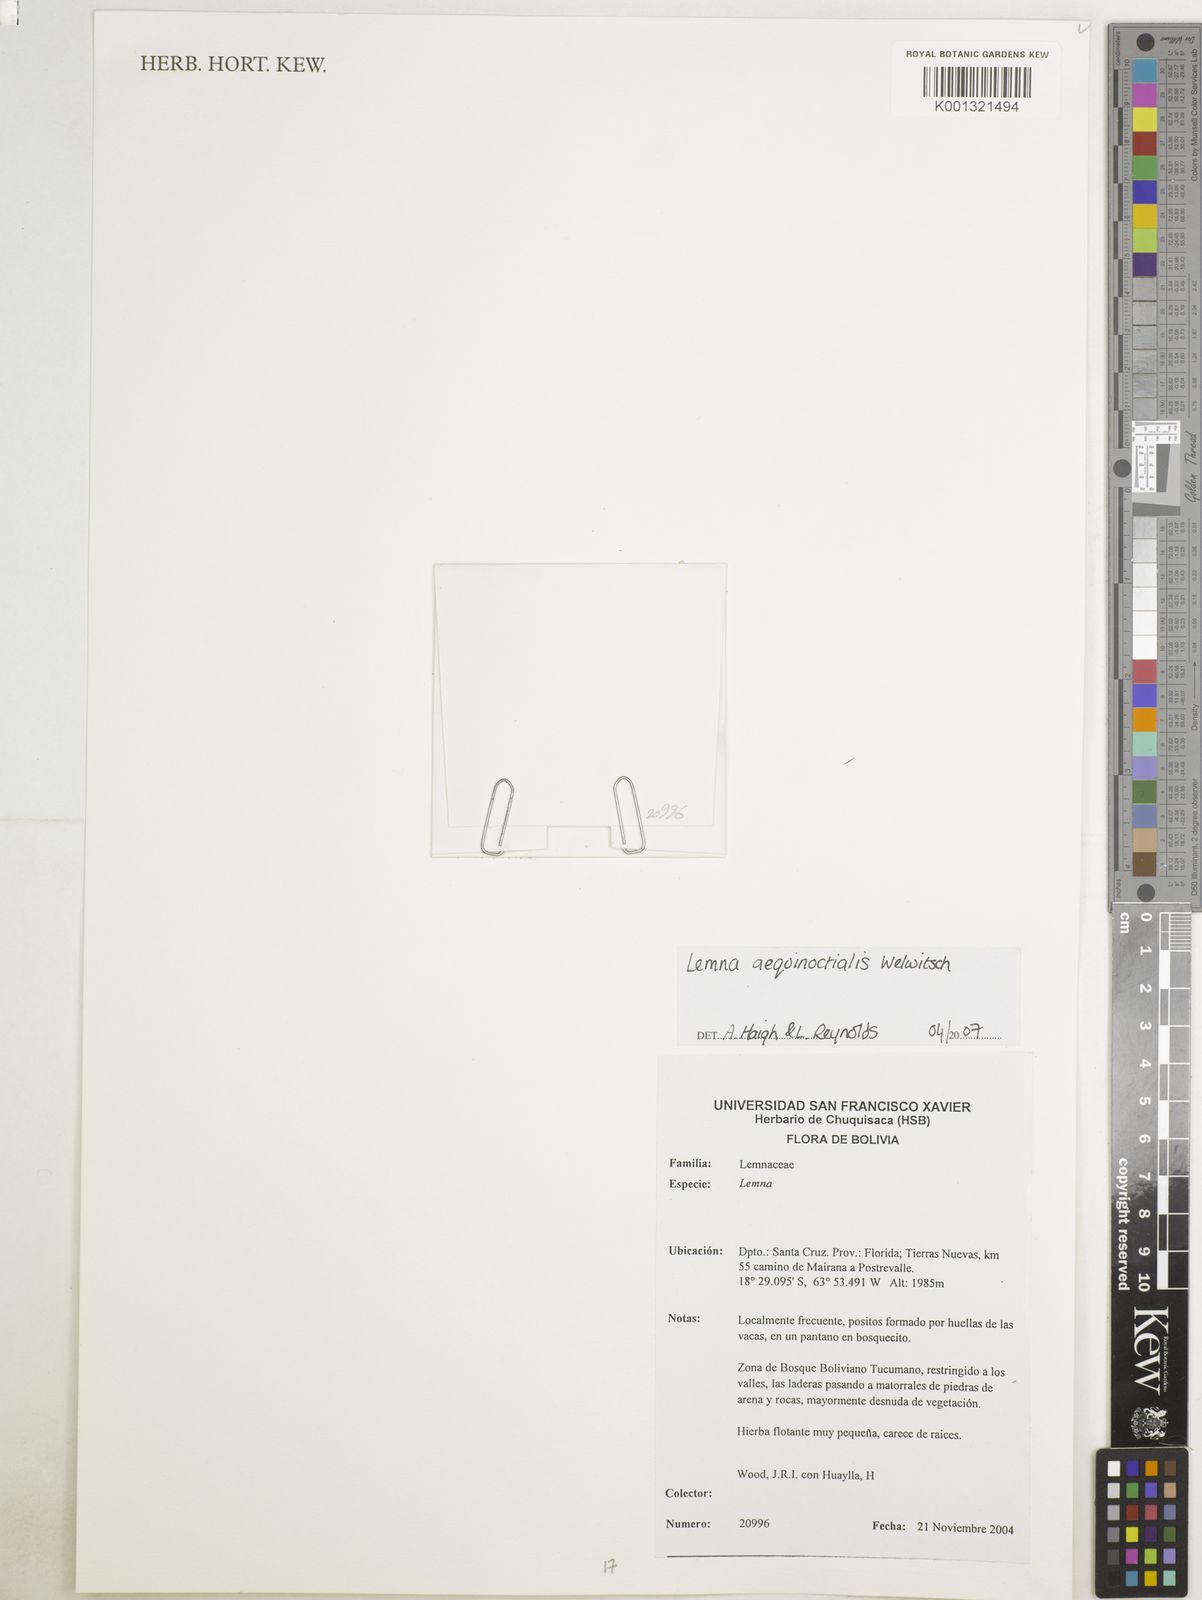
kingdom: Plantae
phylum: Tracheophyta
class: Liliopsida
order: Alismatales
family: Araceae
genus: Lemna
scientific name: Lemna aequinoctialis
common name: Duckweed
